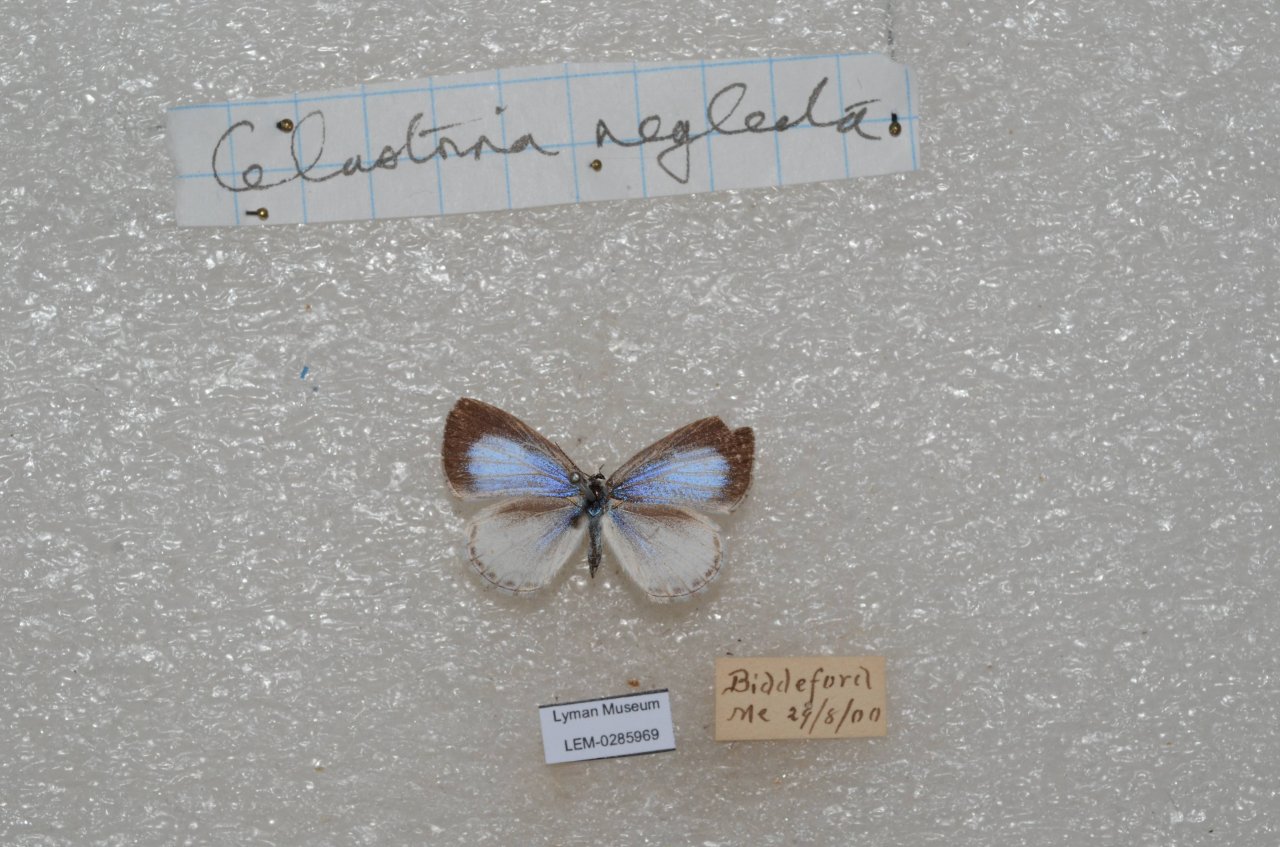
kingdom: Animalia
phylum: Arthropoda
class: Insecta
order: Lepidoptera
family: Lycaenidae
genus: Cyaniris
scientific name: Cyaniris neglecta
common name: Summer Azure
